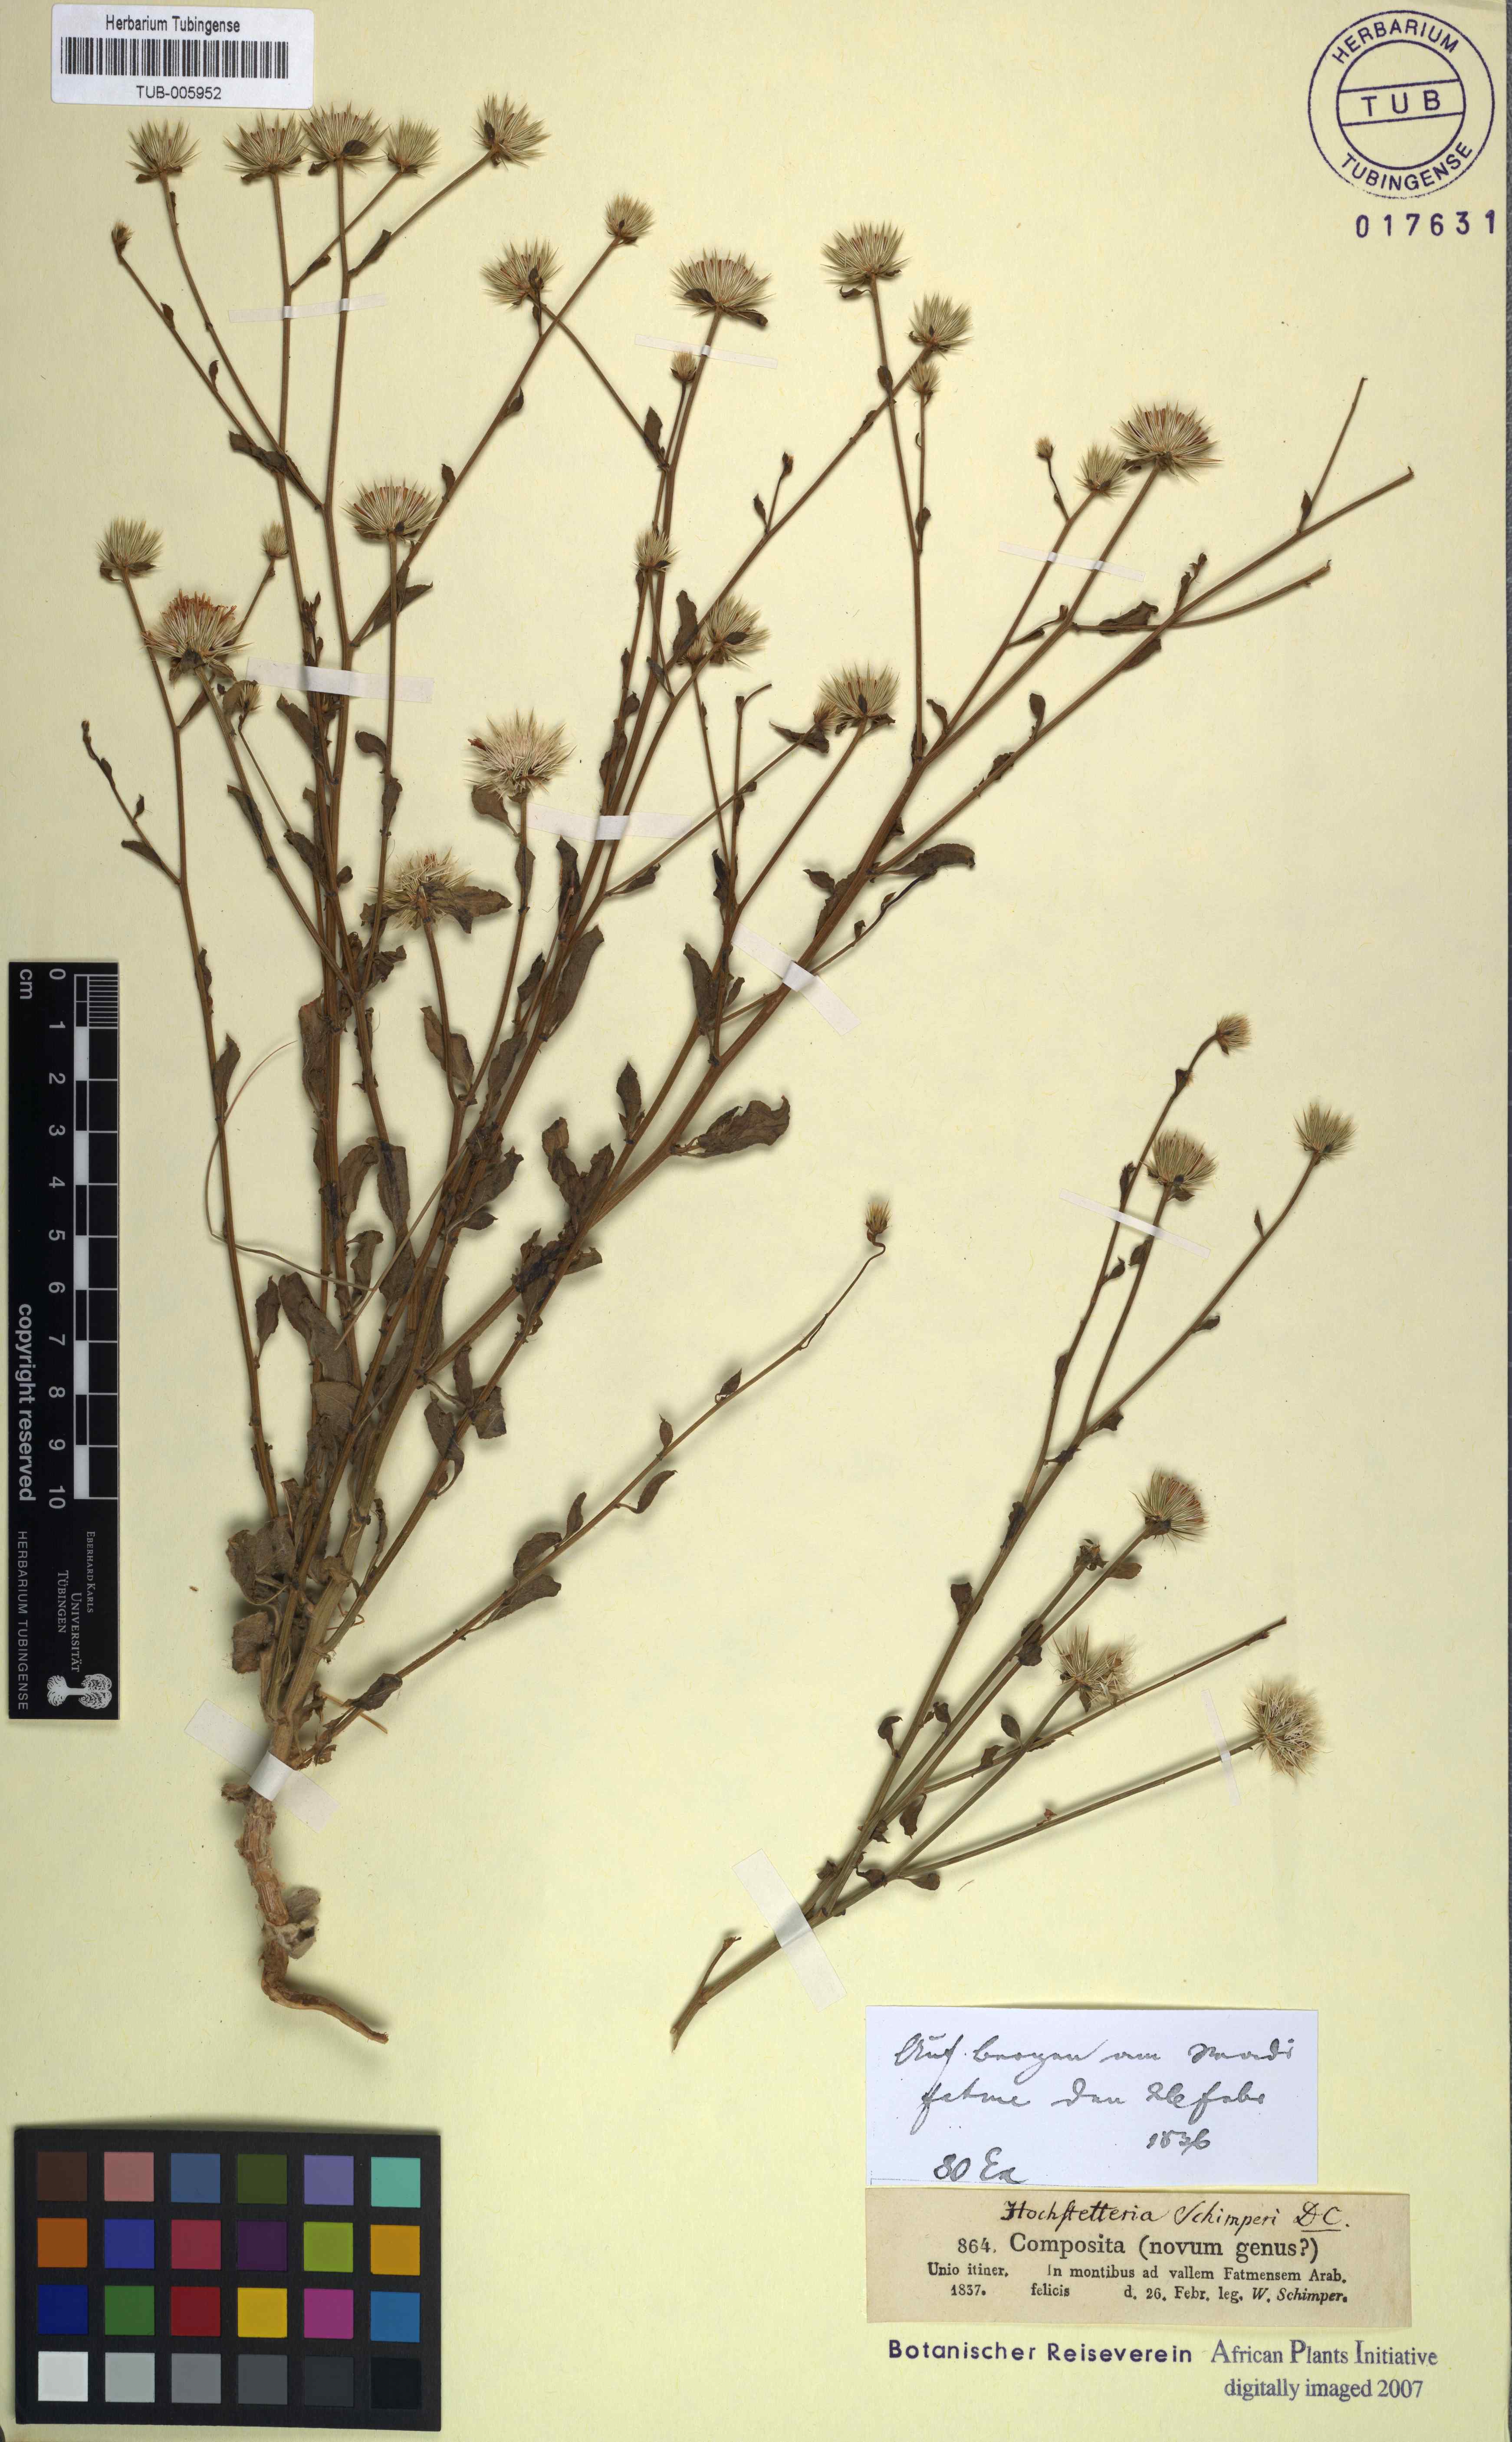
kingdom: Plantae
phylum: Tracheophyta
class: Magnoliopsida
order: Asterales
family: Asteraceae
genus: Dicoma
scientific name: Dicoma schimperi
